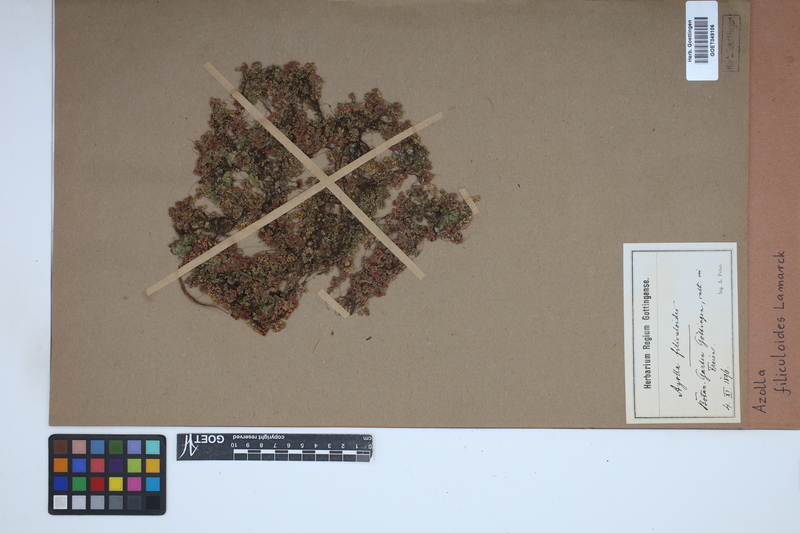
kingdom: Plantae
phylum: Tracheophyta
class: Polypodiopsida
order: Salviniales
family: Salviniaceae
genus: Azolla
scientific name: Azolla filiculoides
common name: Water fern
